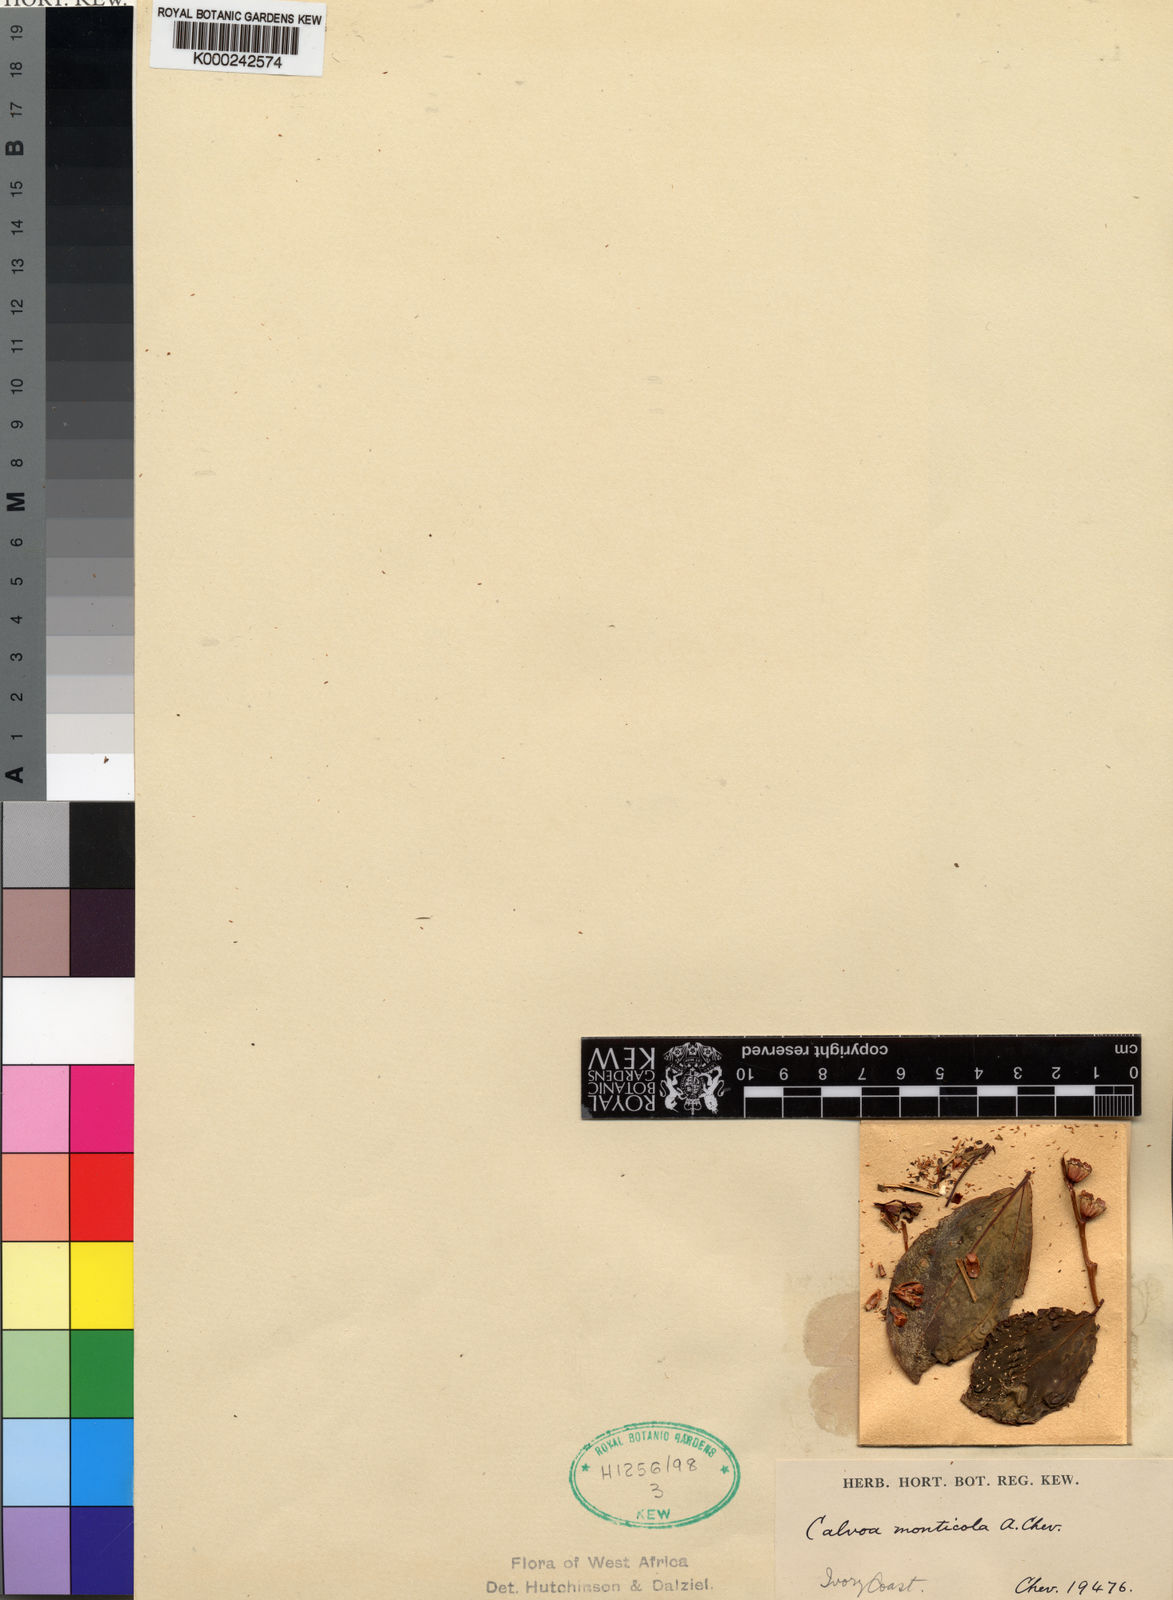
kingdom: Plantae
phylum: Tracheophyta
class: Magnoliopsida
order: Myrtales
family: Melastomataceae
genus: Calvoa
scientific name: Calvoa monticola
